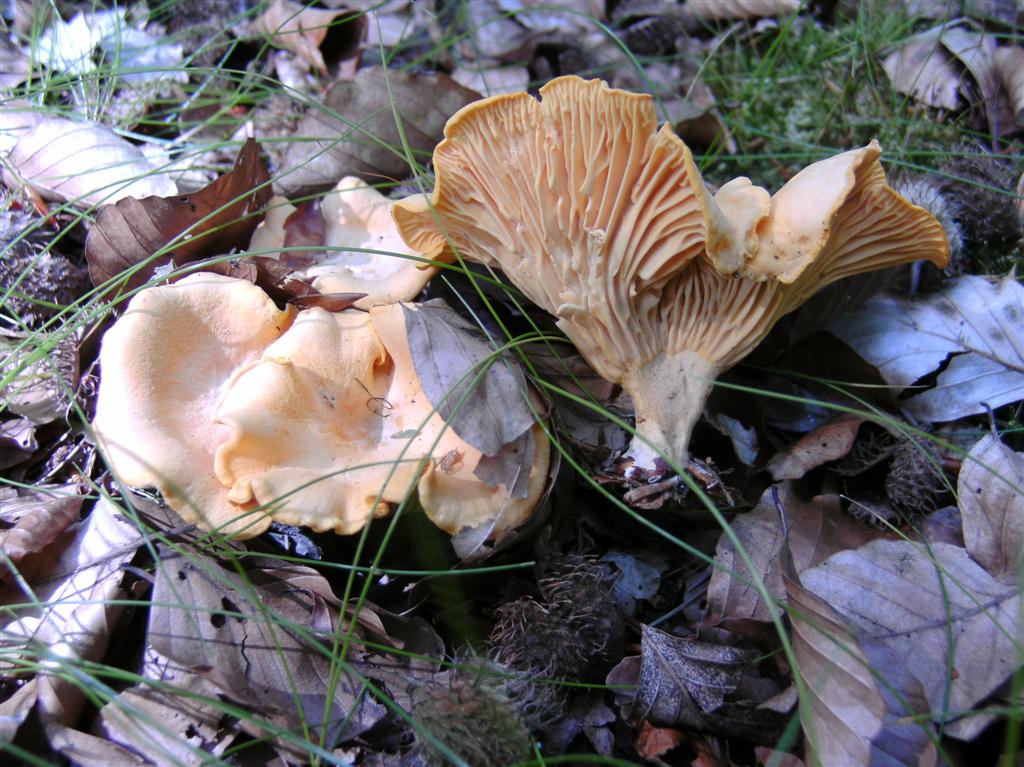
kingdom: Fungi
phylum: Basidiomycota
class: Agaricomycetes
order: Cantharellales
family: Hydnaceae
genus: Cantharellus
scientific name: Cantharellus pallens
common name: bleg kantarel
